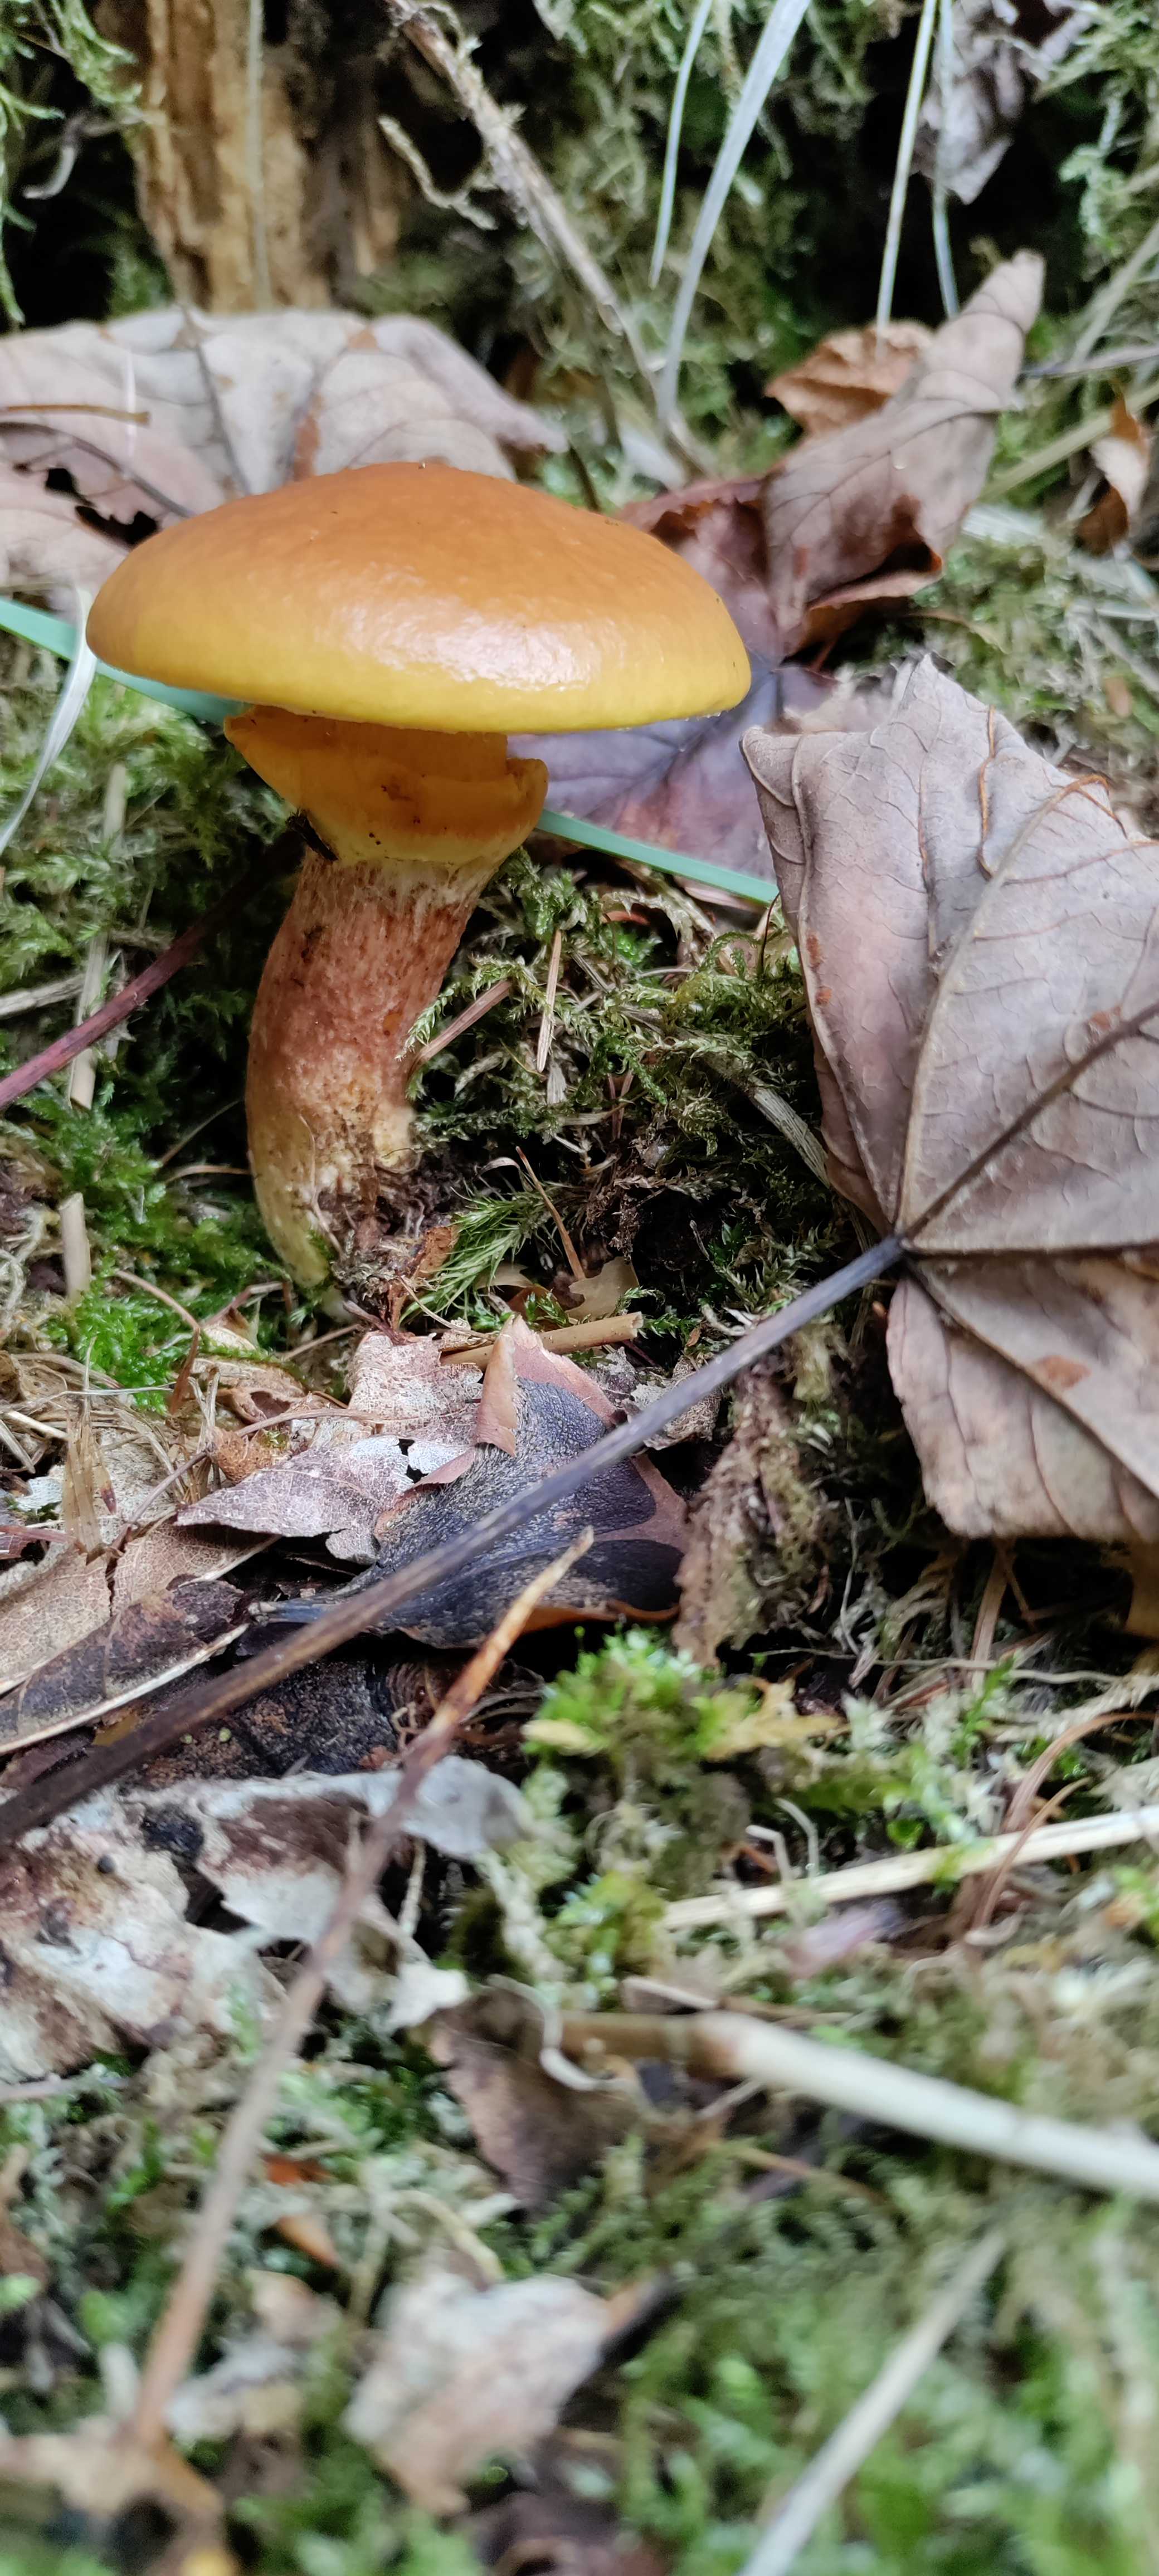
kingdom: Fungi
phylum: Basidiomycota
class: Agaricomycetes
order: Boletales
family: Suillaceae
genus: Suillus
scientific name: Suillus grevillei
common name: lærke-slimrørhat
